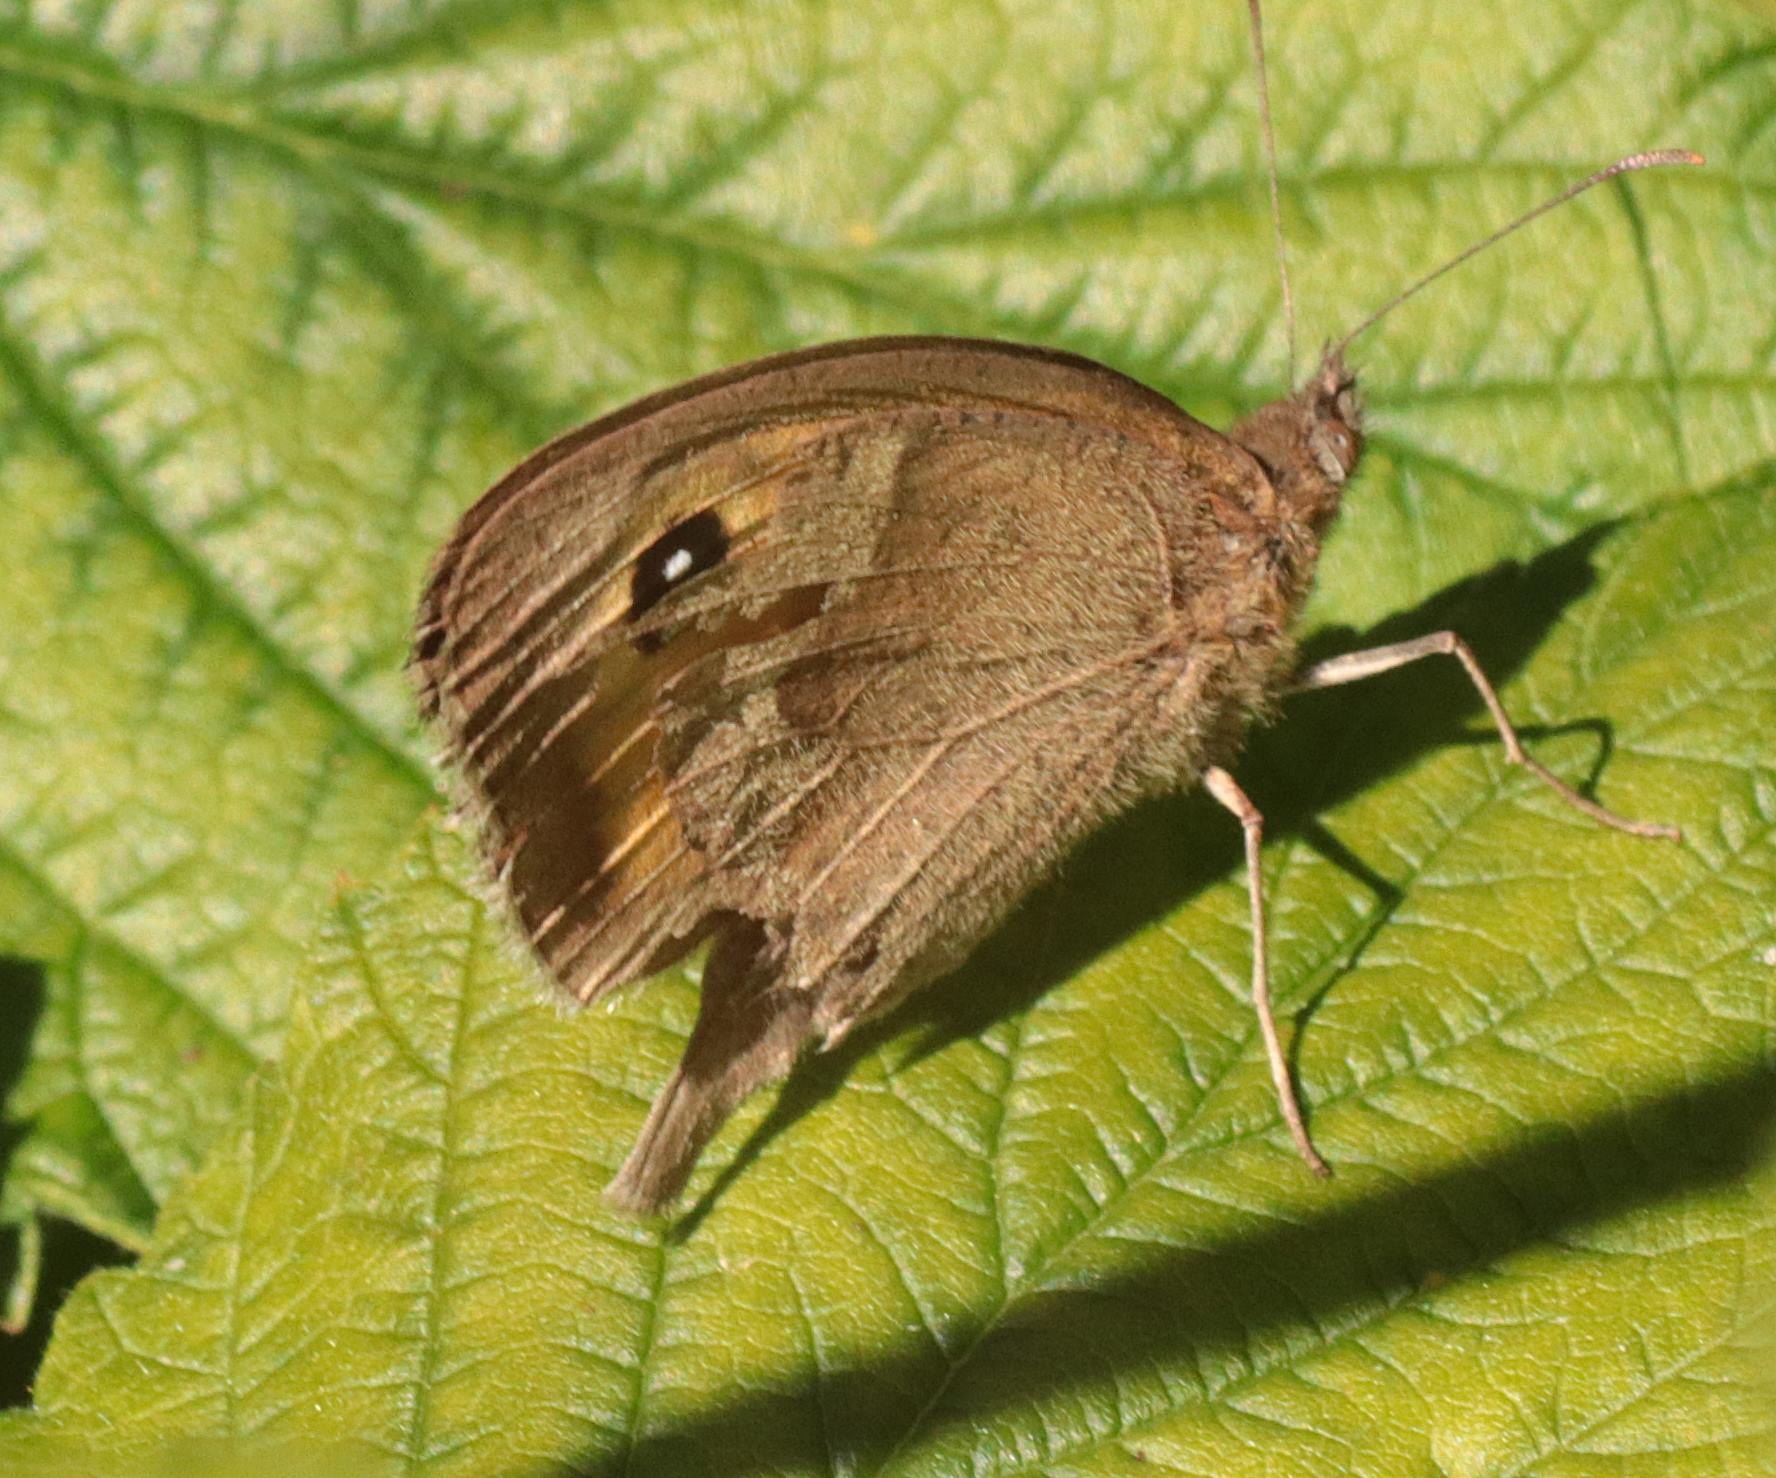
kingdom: Animalia
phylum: Arthropoda
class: Insecta
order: Lepidoptera
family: Nymphalidae
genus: Maniola
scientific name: Maniola jurtina
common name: Græsrandøje
